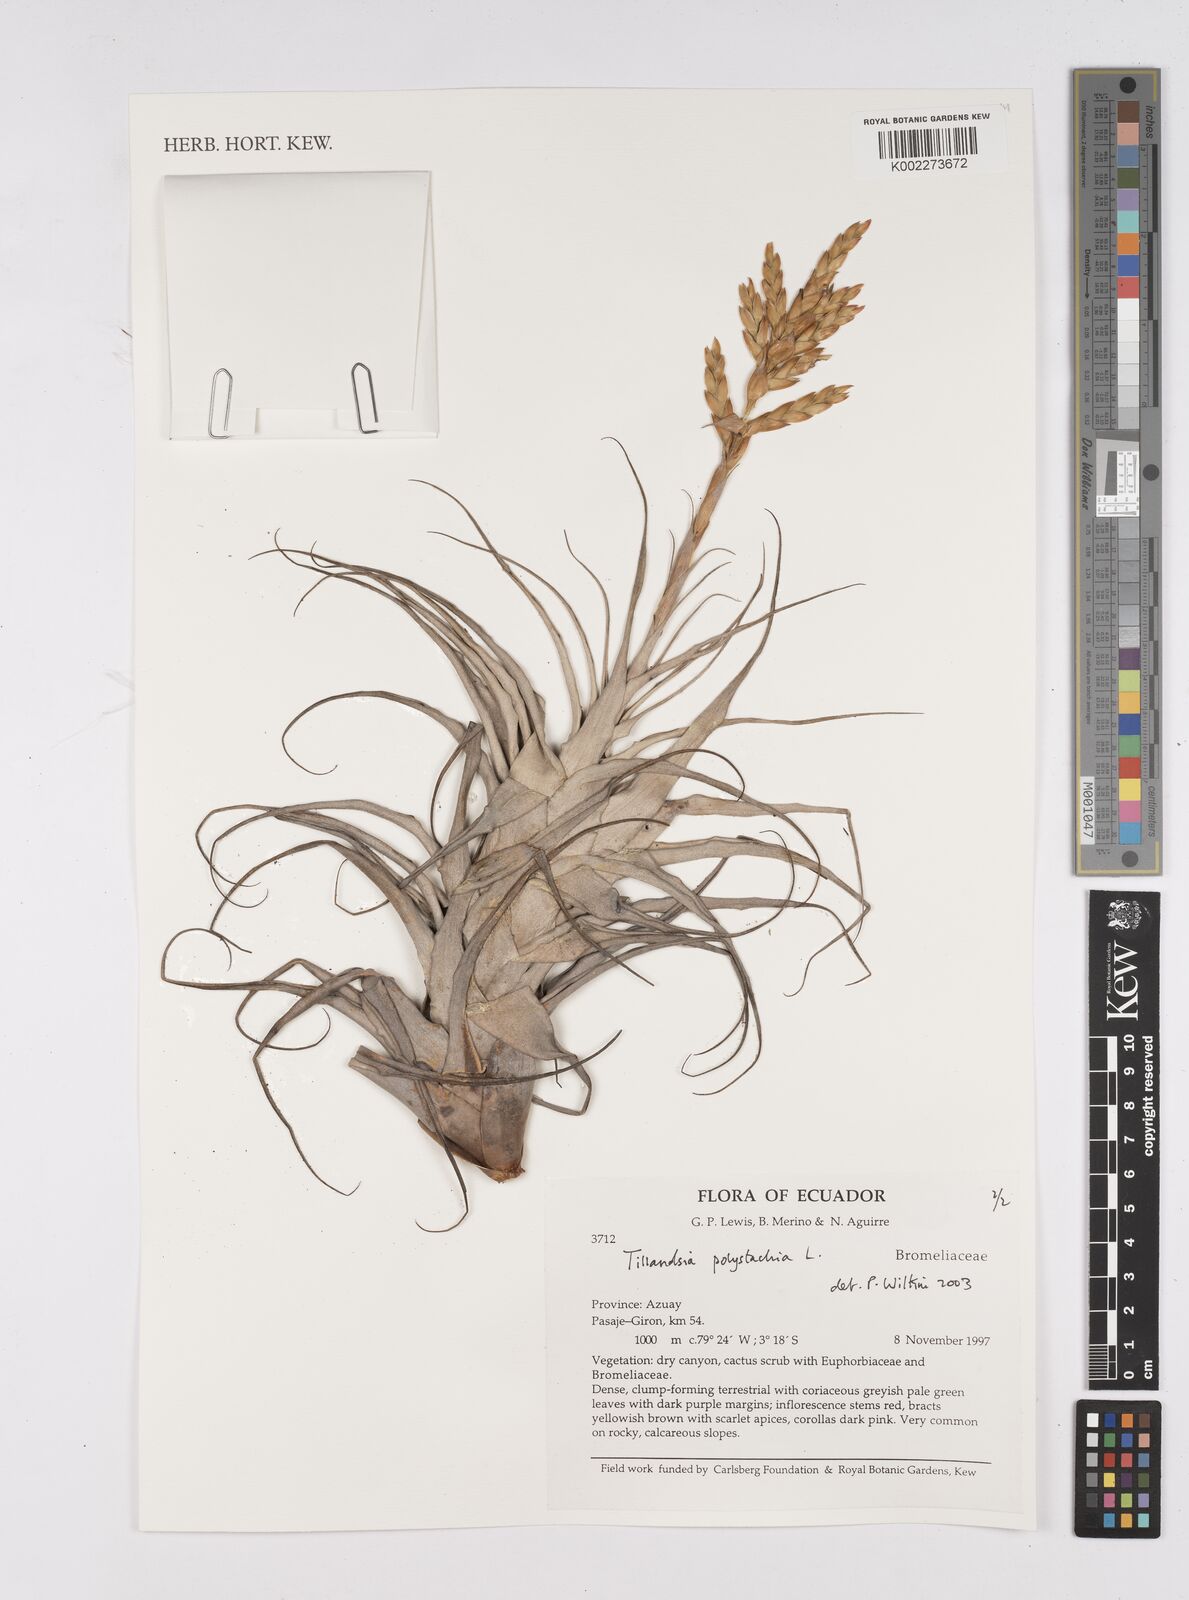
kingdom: Plantae
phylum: Tracheophyta
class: Liliopsida
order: Poales
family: Bromeliaceae
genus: Tillandsia
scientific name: Tillandsia polystachia
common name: Airplant
